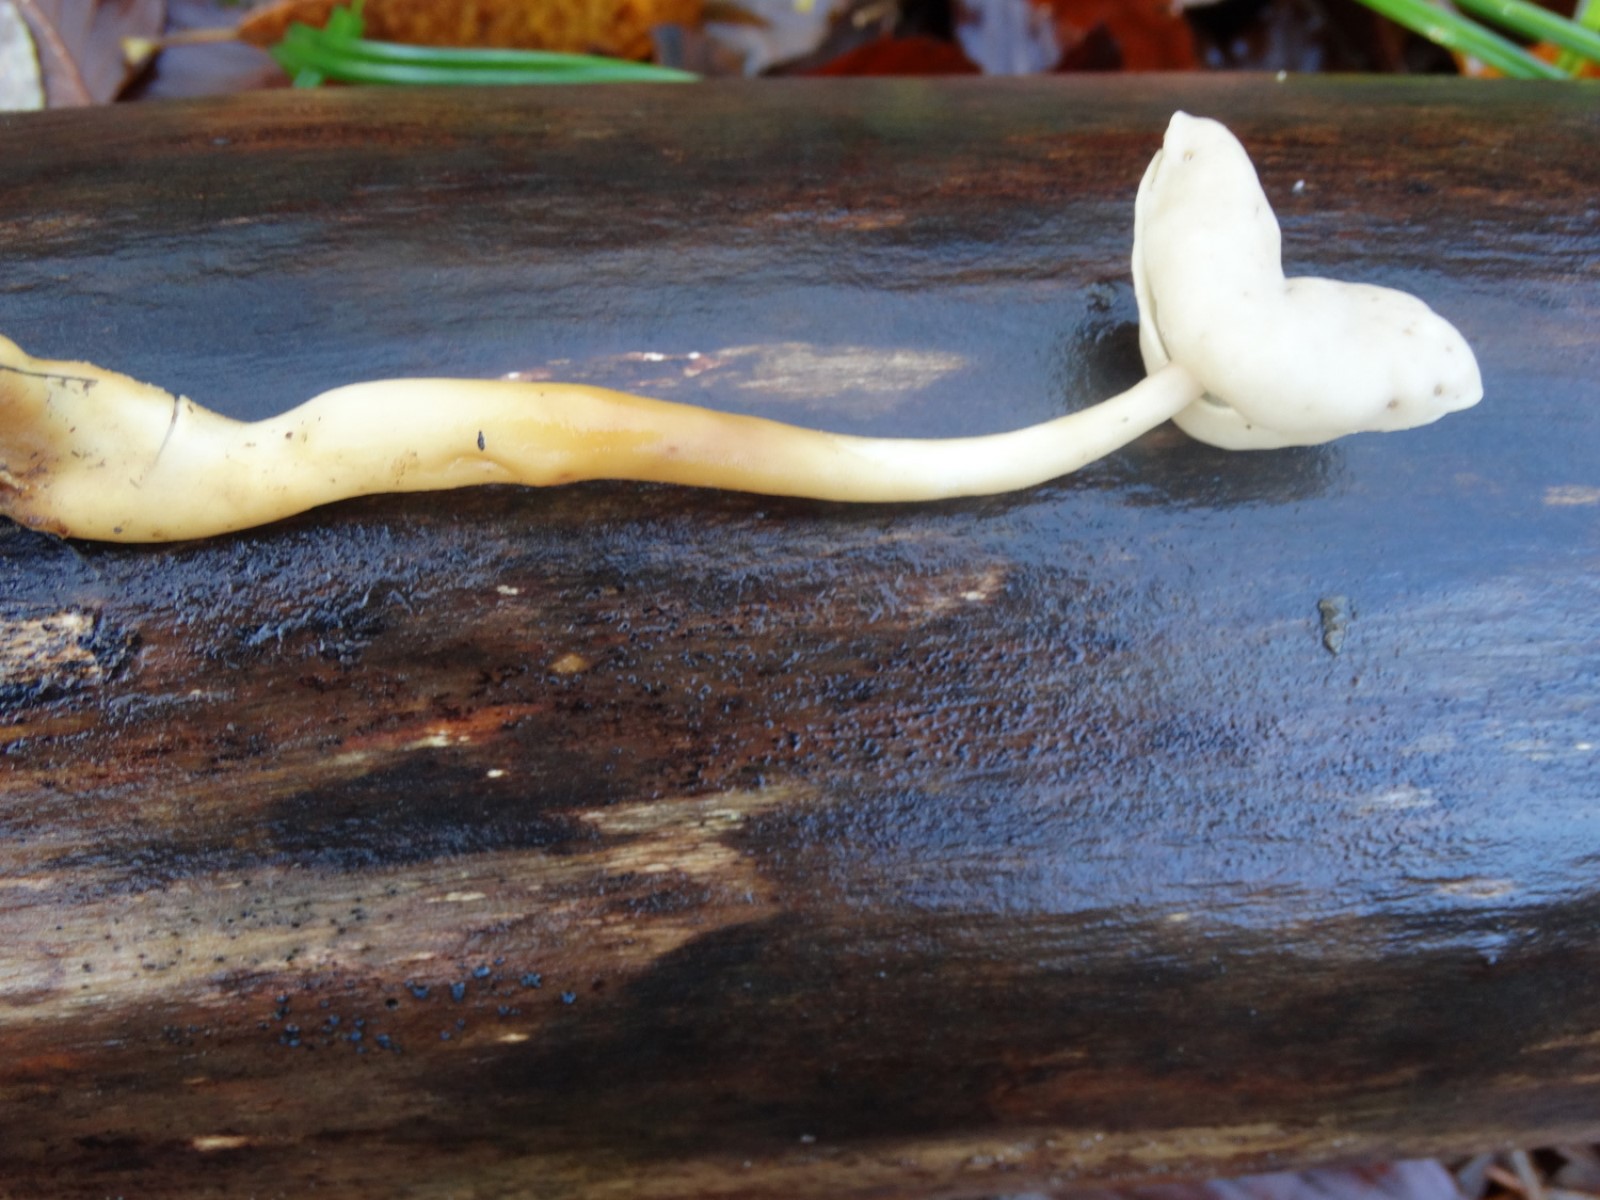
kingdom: Fungi
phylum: Ascomycota
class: Pezizomycetes
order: Pezizales
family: Helvellaceae
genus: Helvella
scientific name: Helvella elastica
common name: elastik-foldhat
